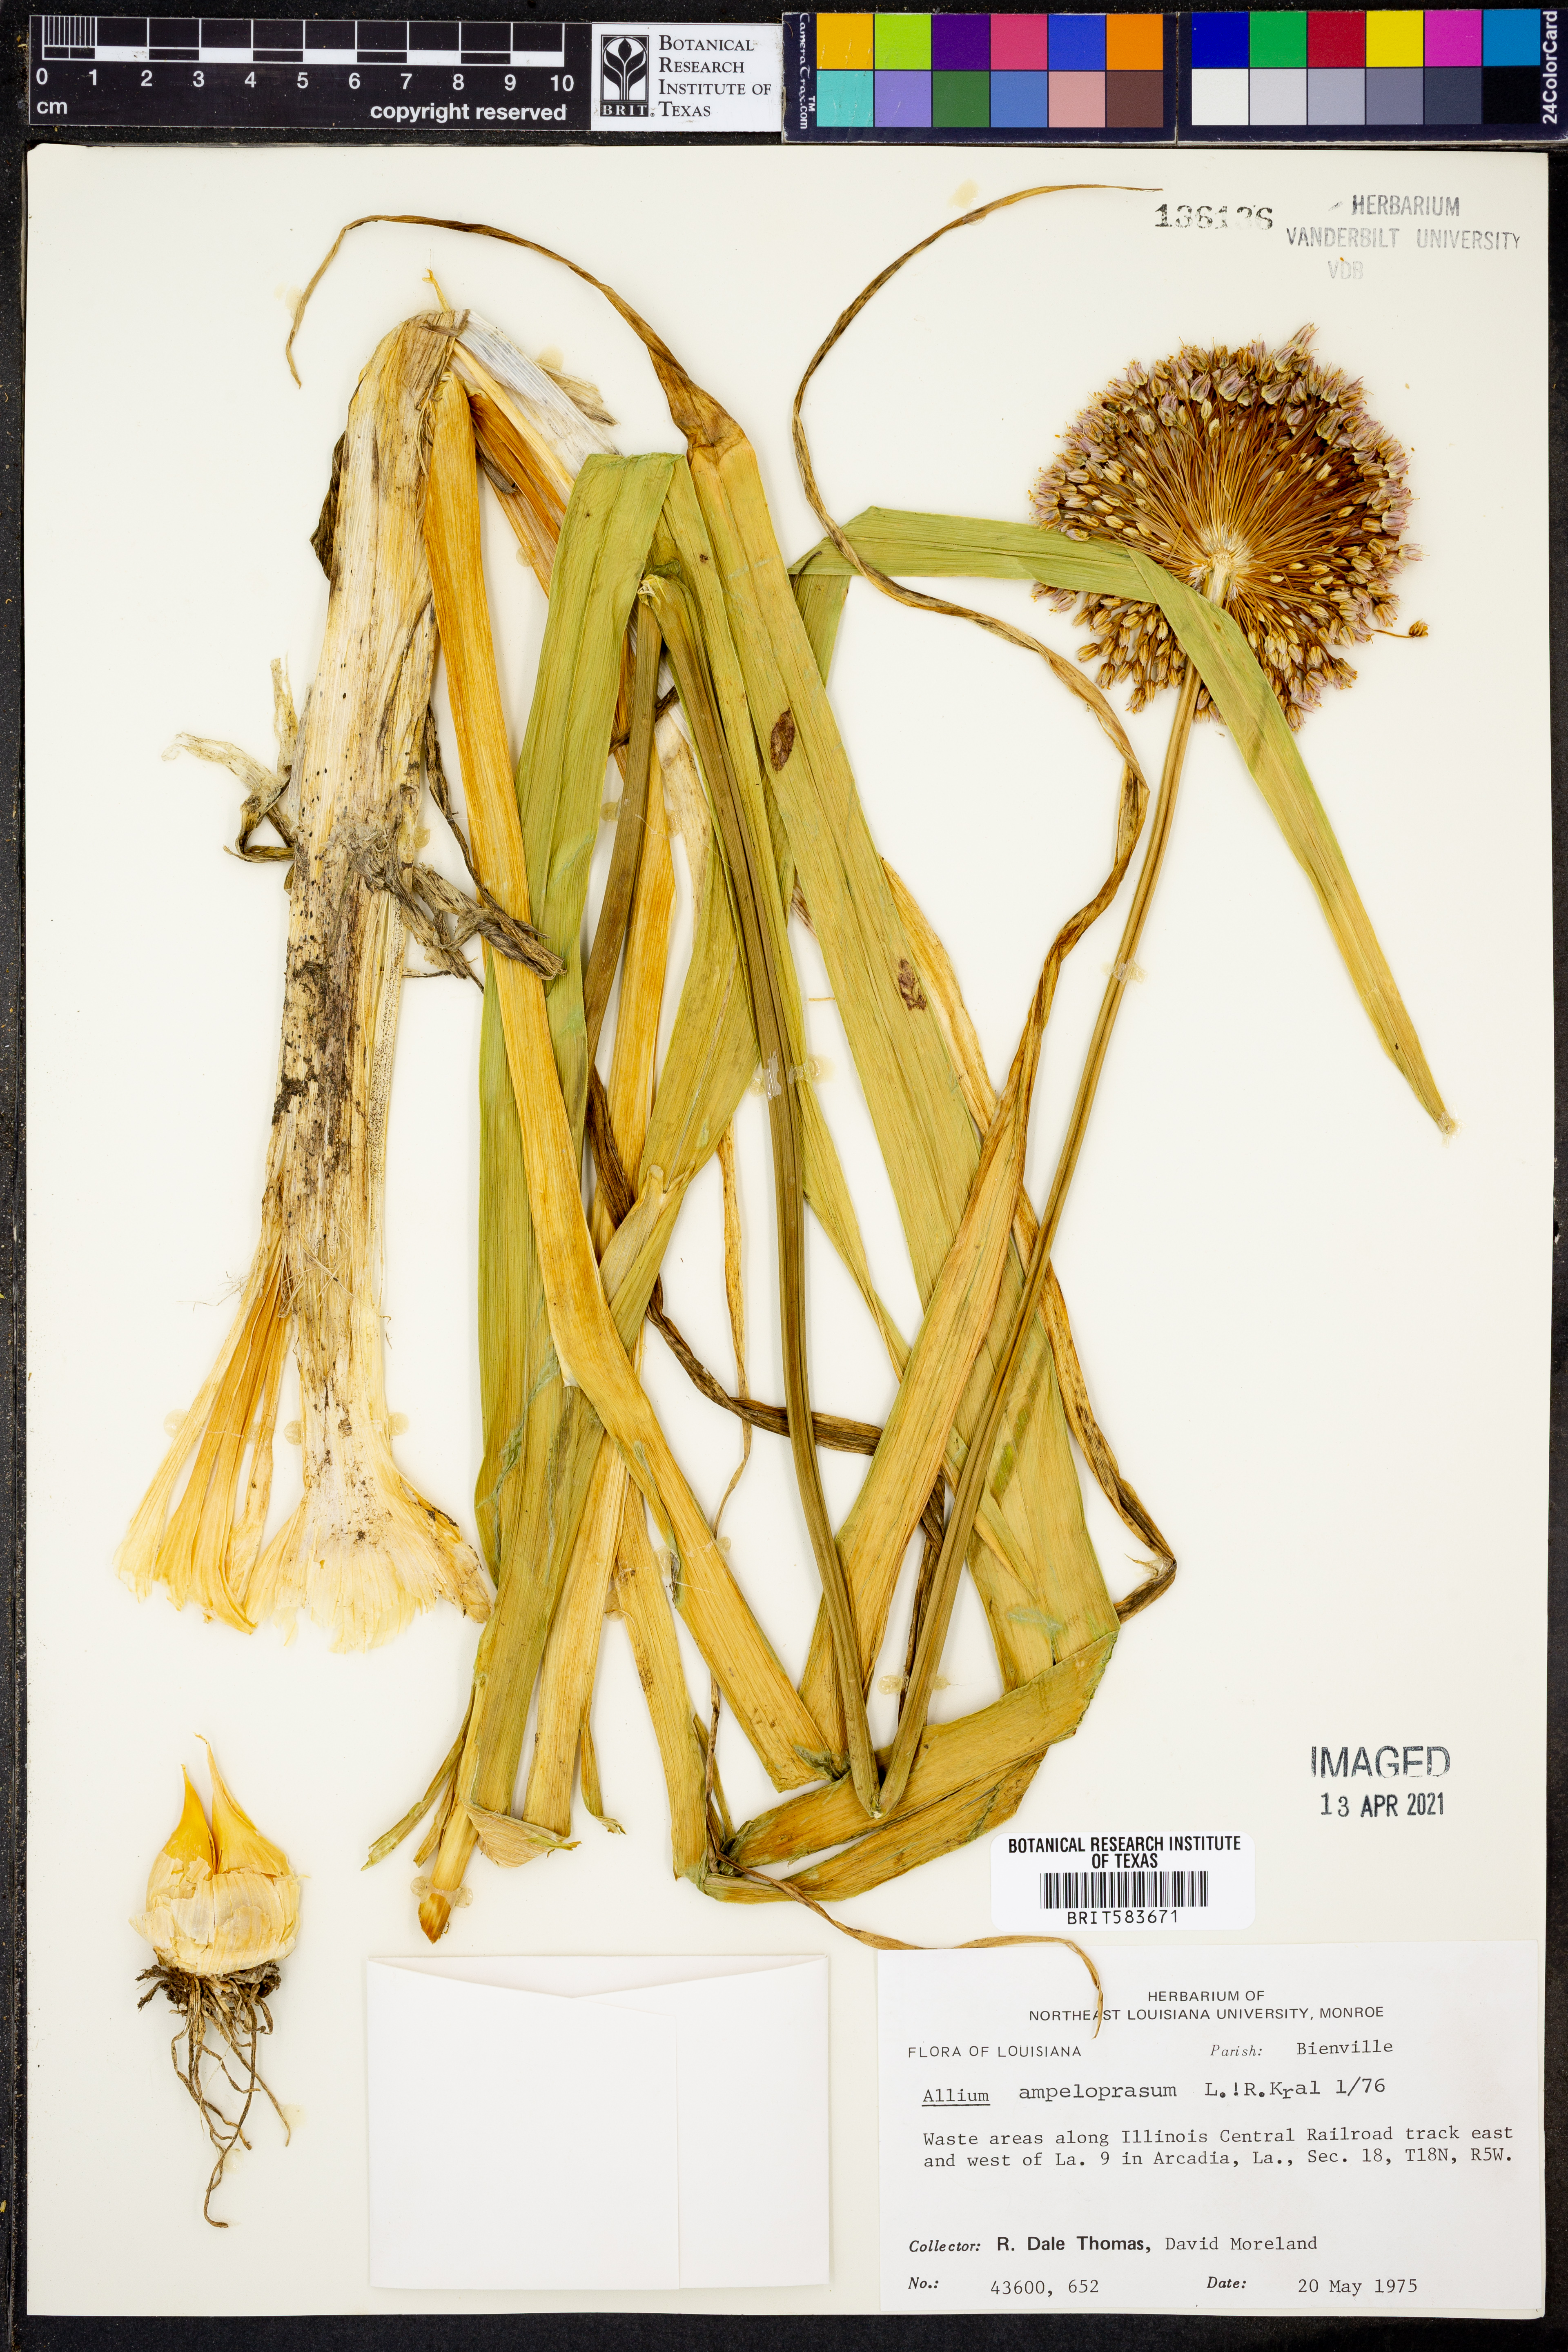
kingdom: Plantae
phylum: Tracheophyta
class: Liliopsida
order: Asparagales
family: Amaryllidaceae
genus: Allium
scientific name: Allium ampeloprasum
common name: Wild leek
